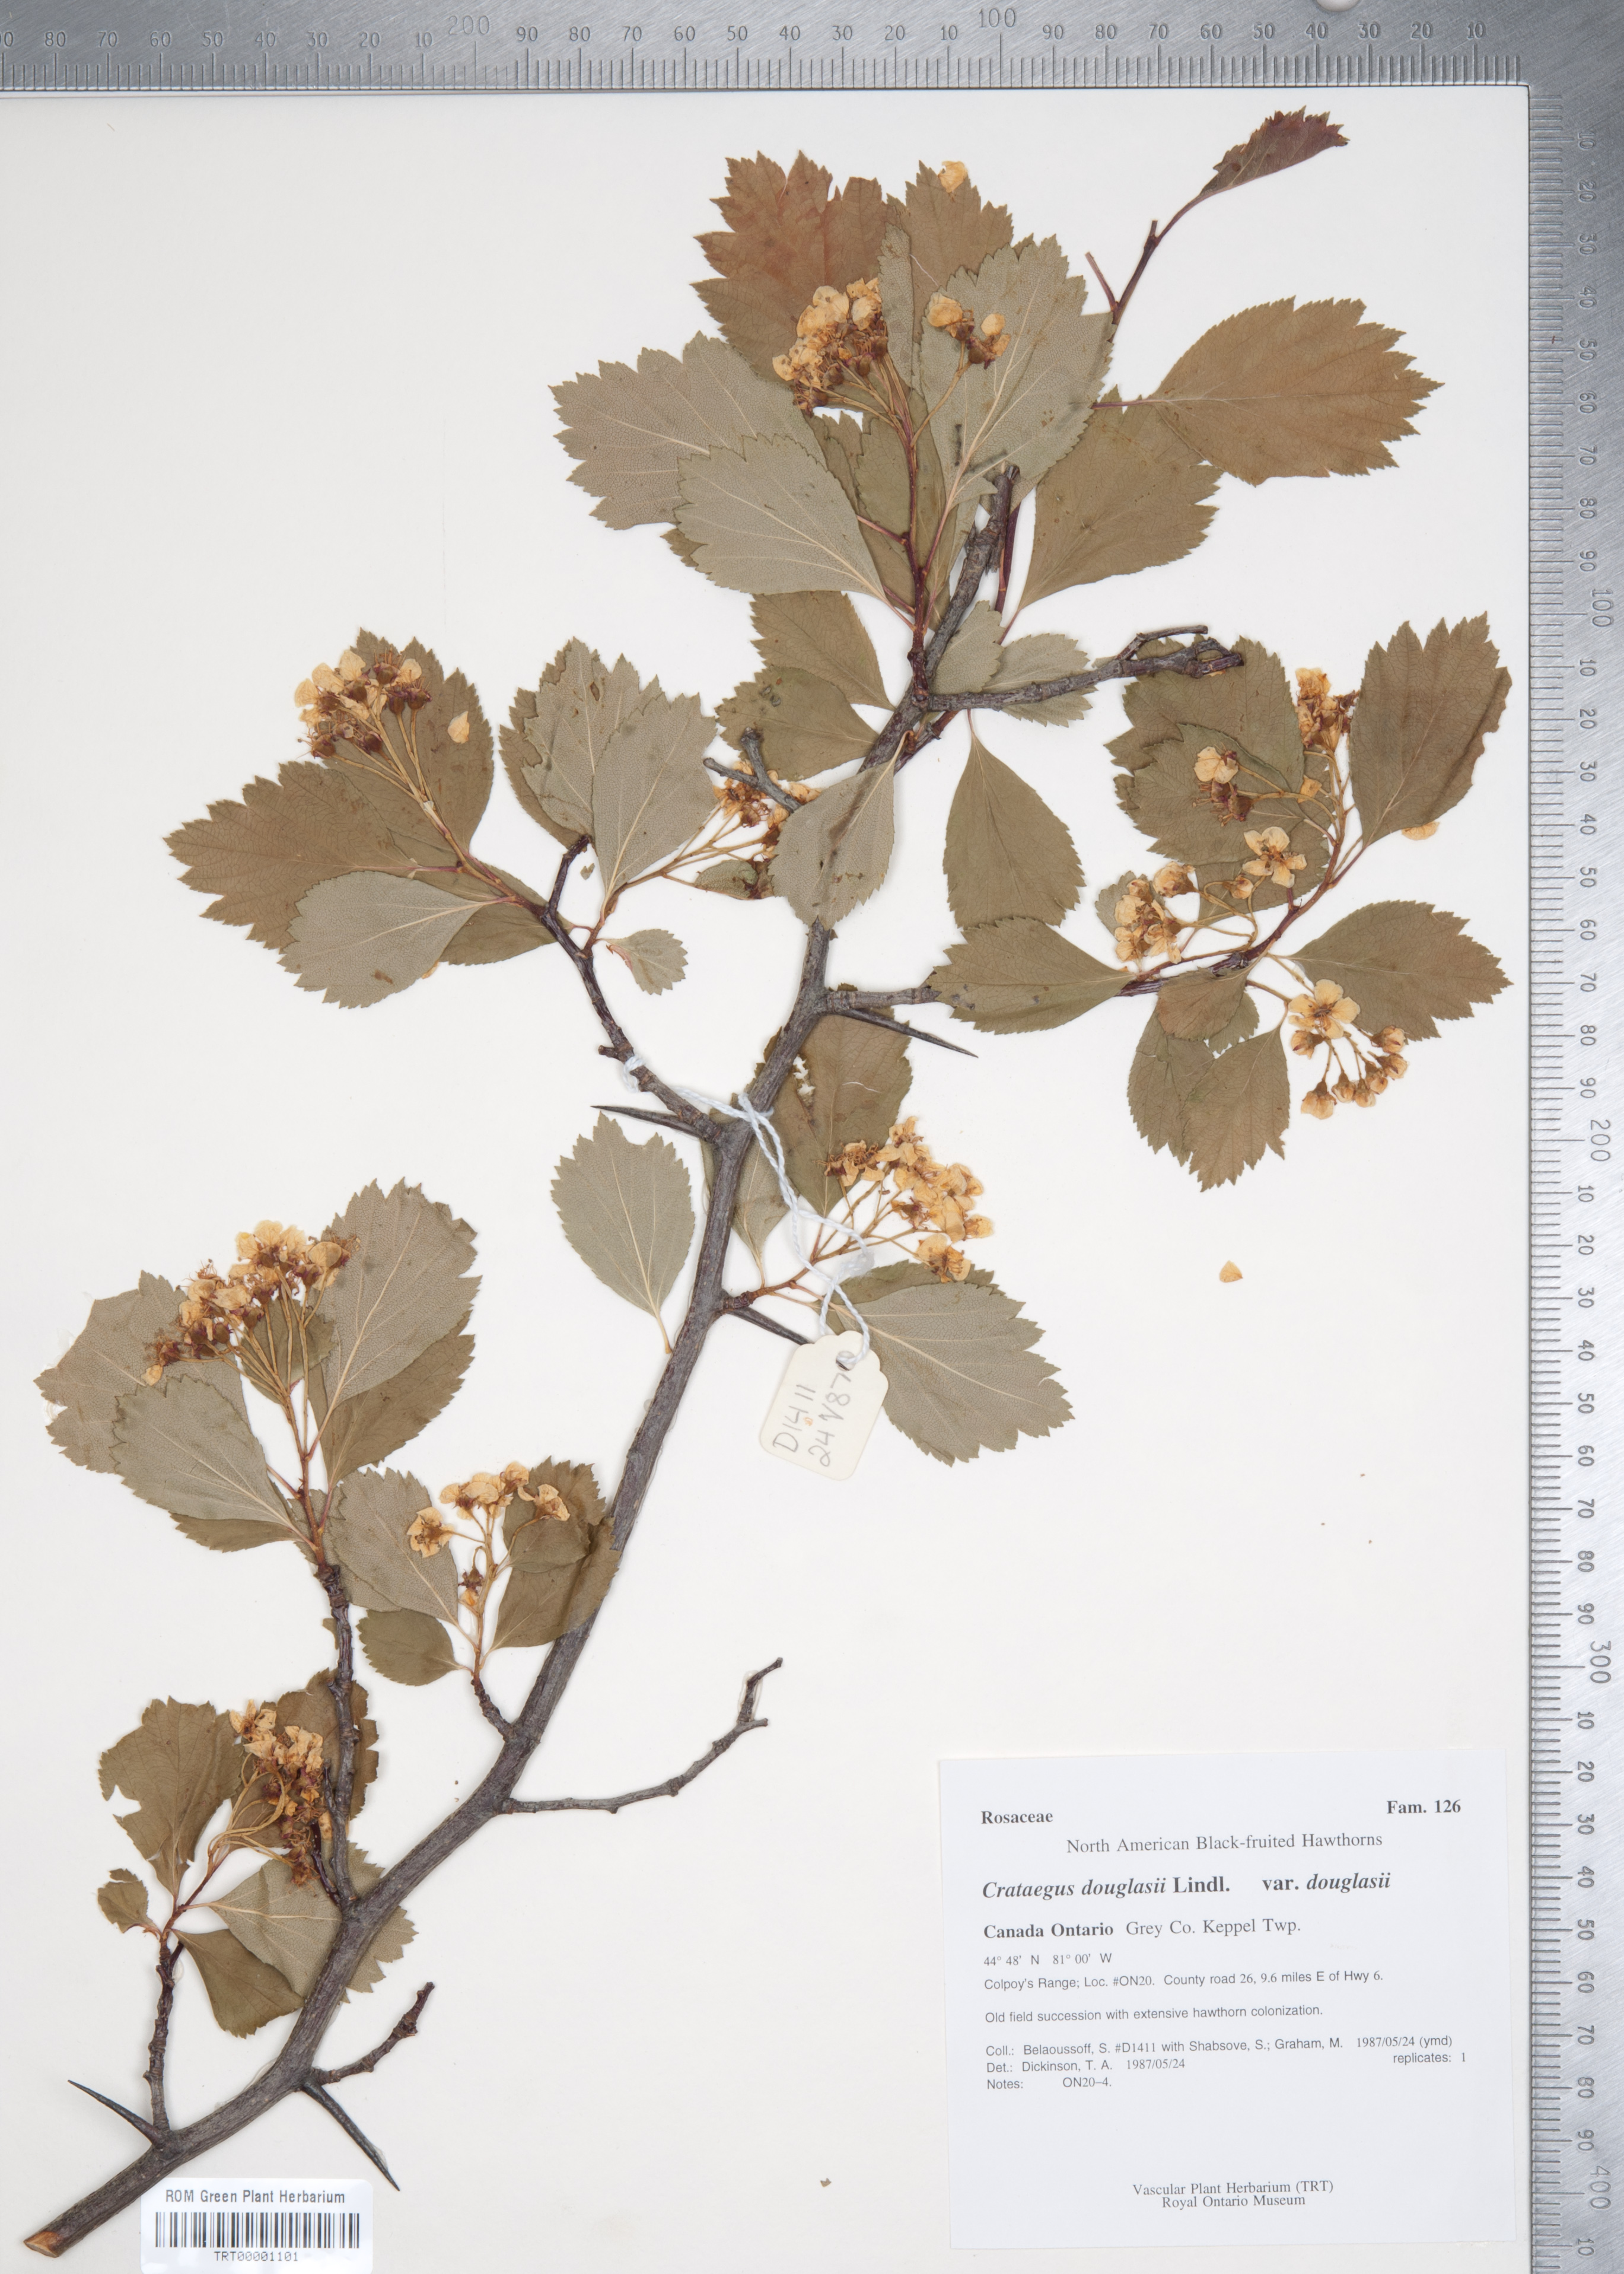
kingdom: Plantae
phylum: Tracheophyta
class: Magnoliopsida
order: Rosales
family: Rosaceae
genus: Crataegus
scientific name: Crataegus douglasii
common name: Black hawthorn
